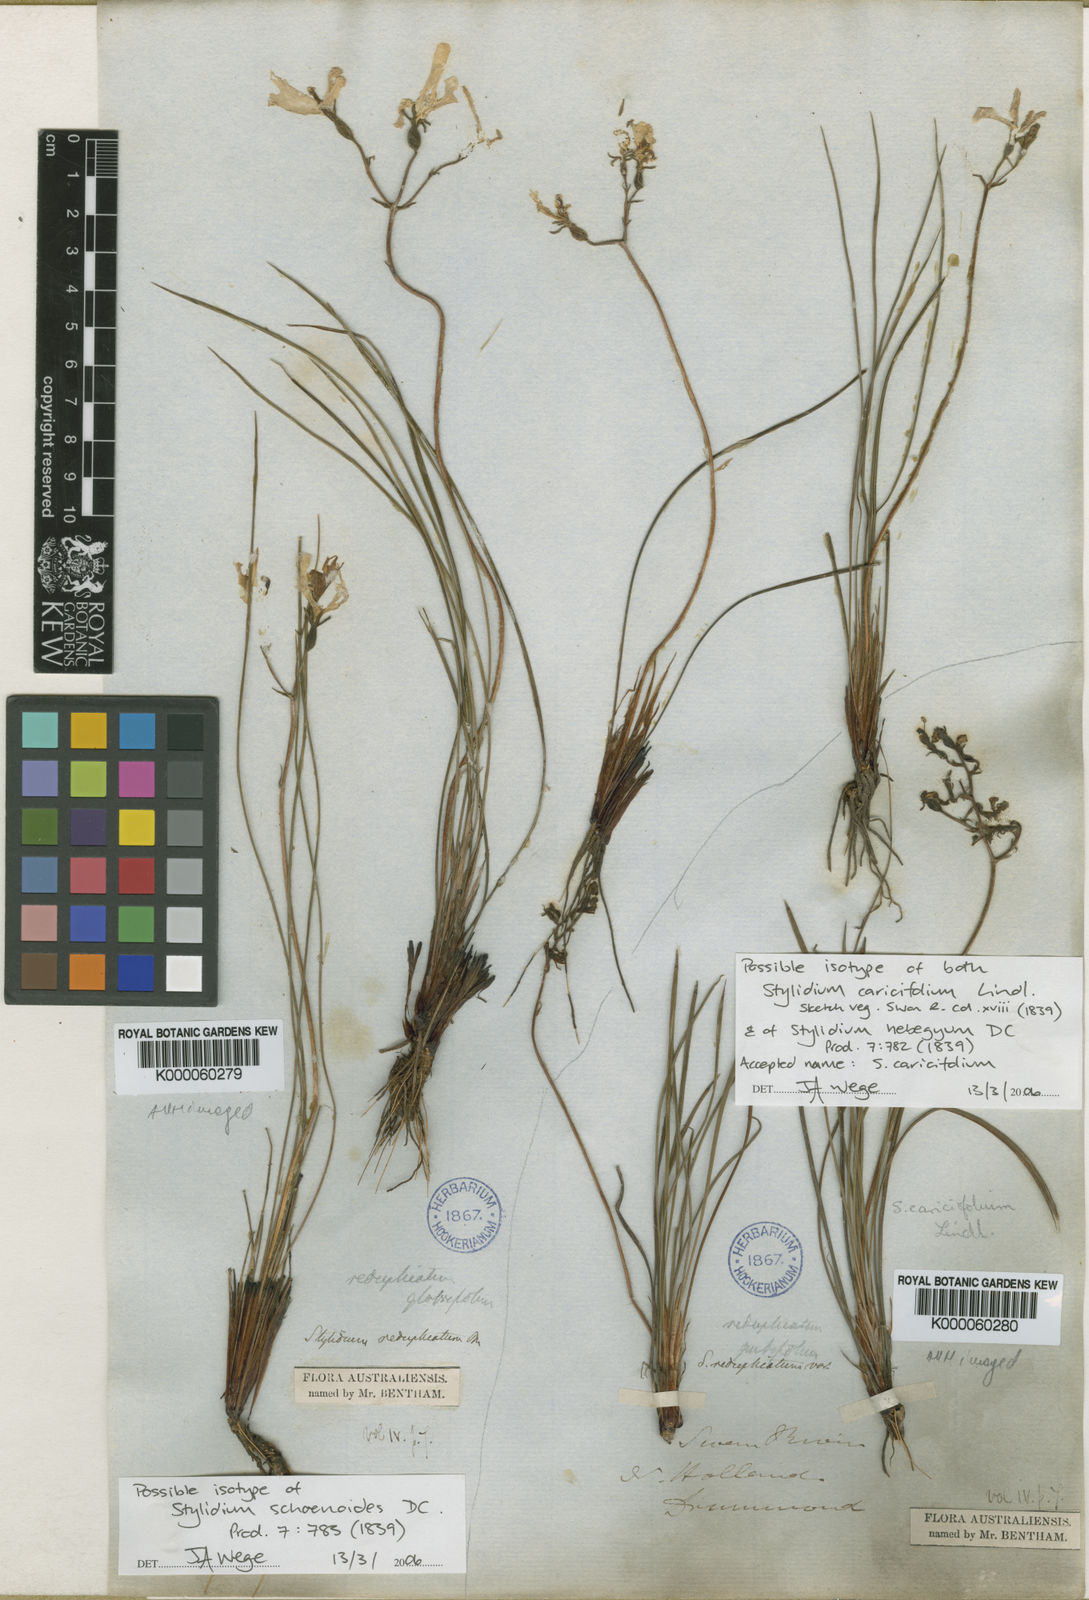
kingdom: Plantae
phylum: Tracheophyta
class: Magnoliopsida
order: Asterales
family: Stylidiaceae
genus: Stylidium
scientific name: Stylidium caricifolium
